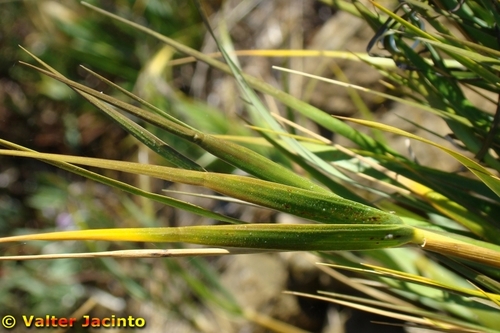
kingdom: Plantae
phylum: Tracheophyta
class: Liliopsida
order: Poales
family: Poaceae
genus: Sporobolus
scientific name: Sporobolus maritimus
